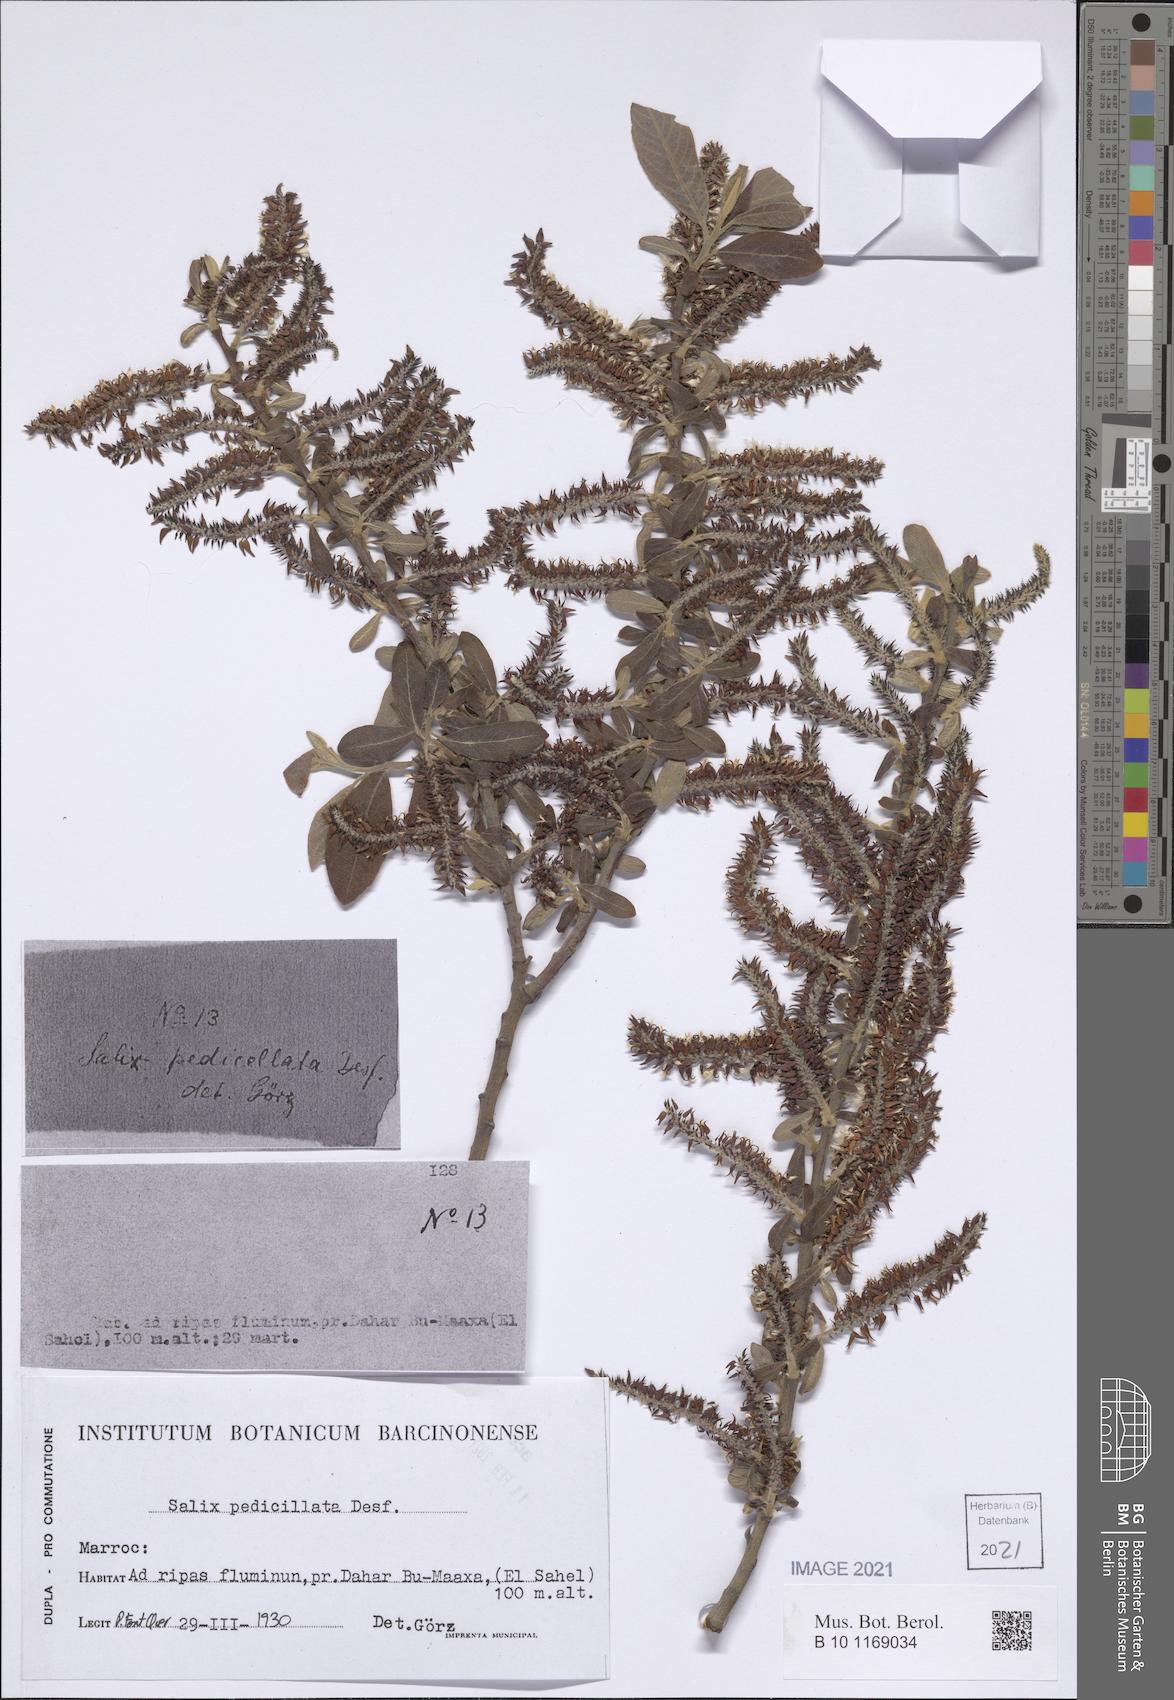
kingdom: Plantae
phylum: Tracheophyta
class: Magnoliopsida
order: Malpighiales
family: Salicaceae
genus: Salix
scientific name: Salix pedicellata
